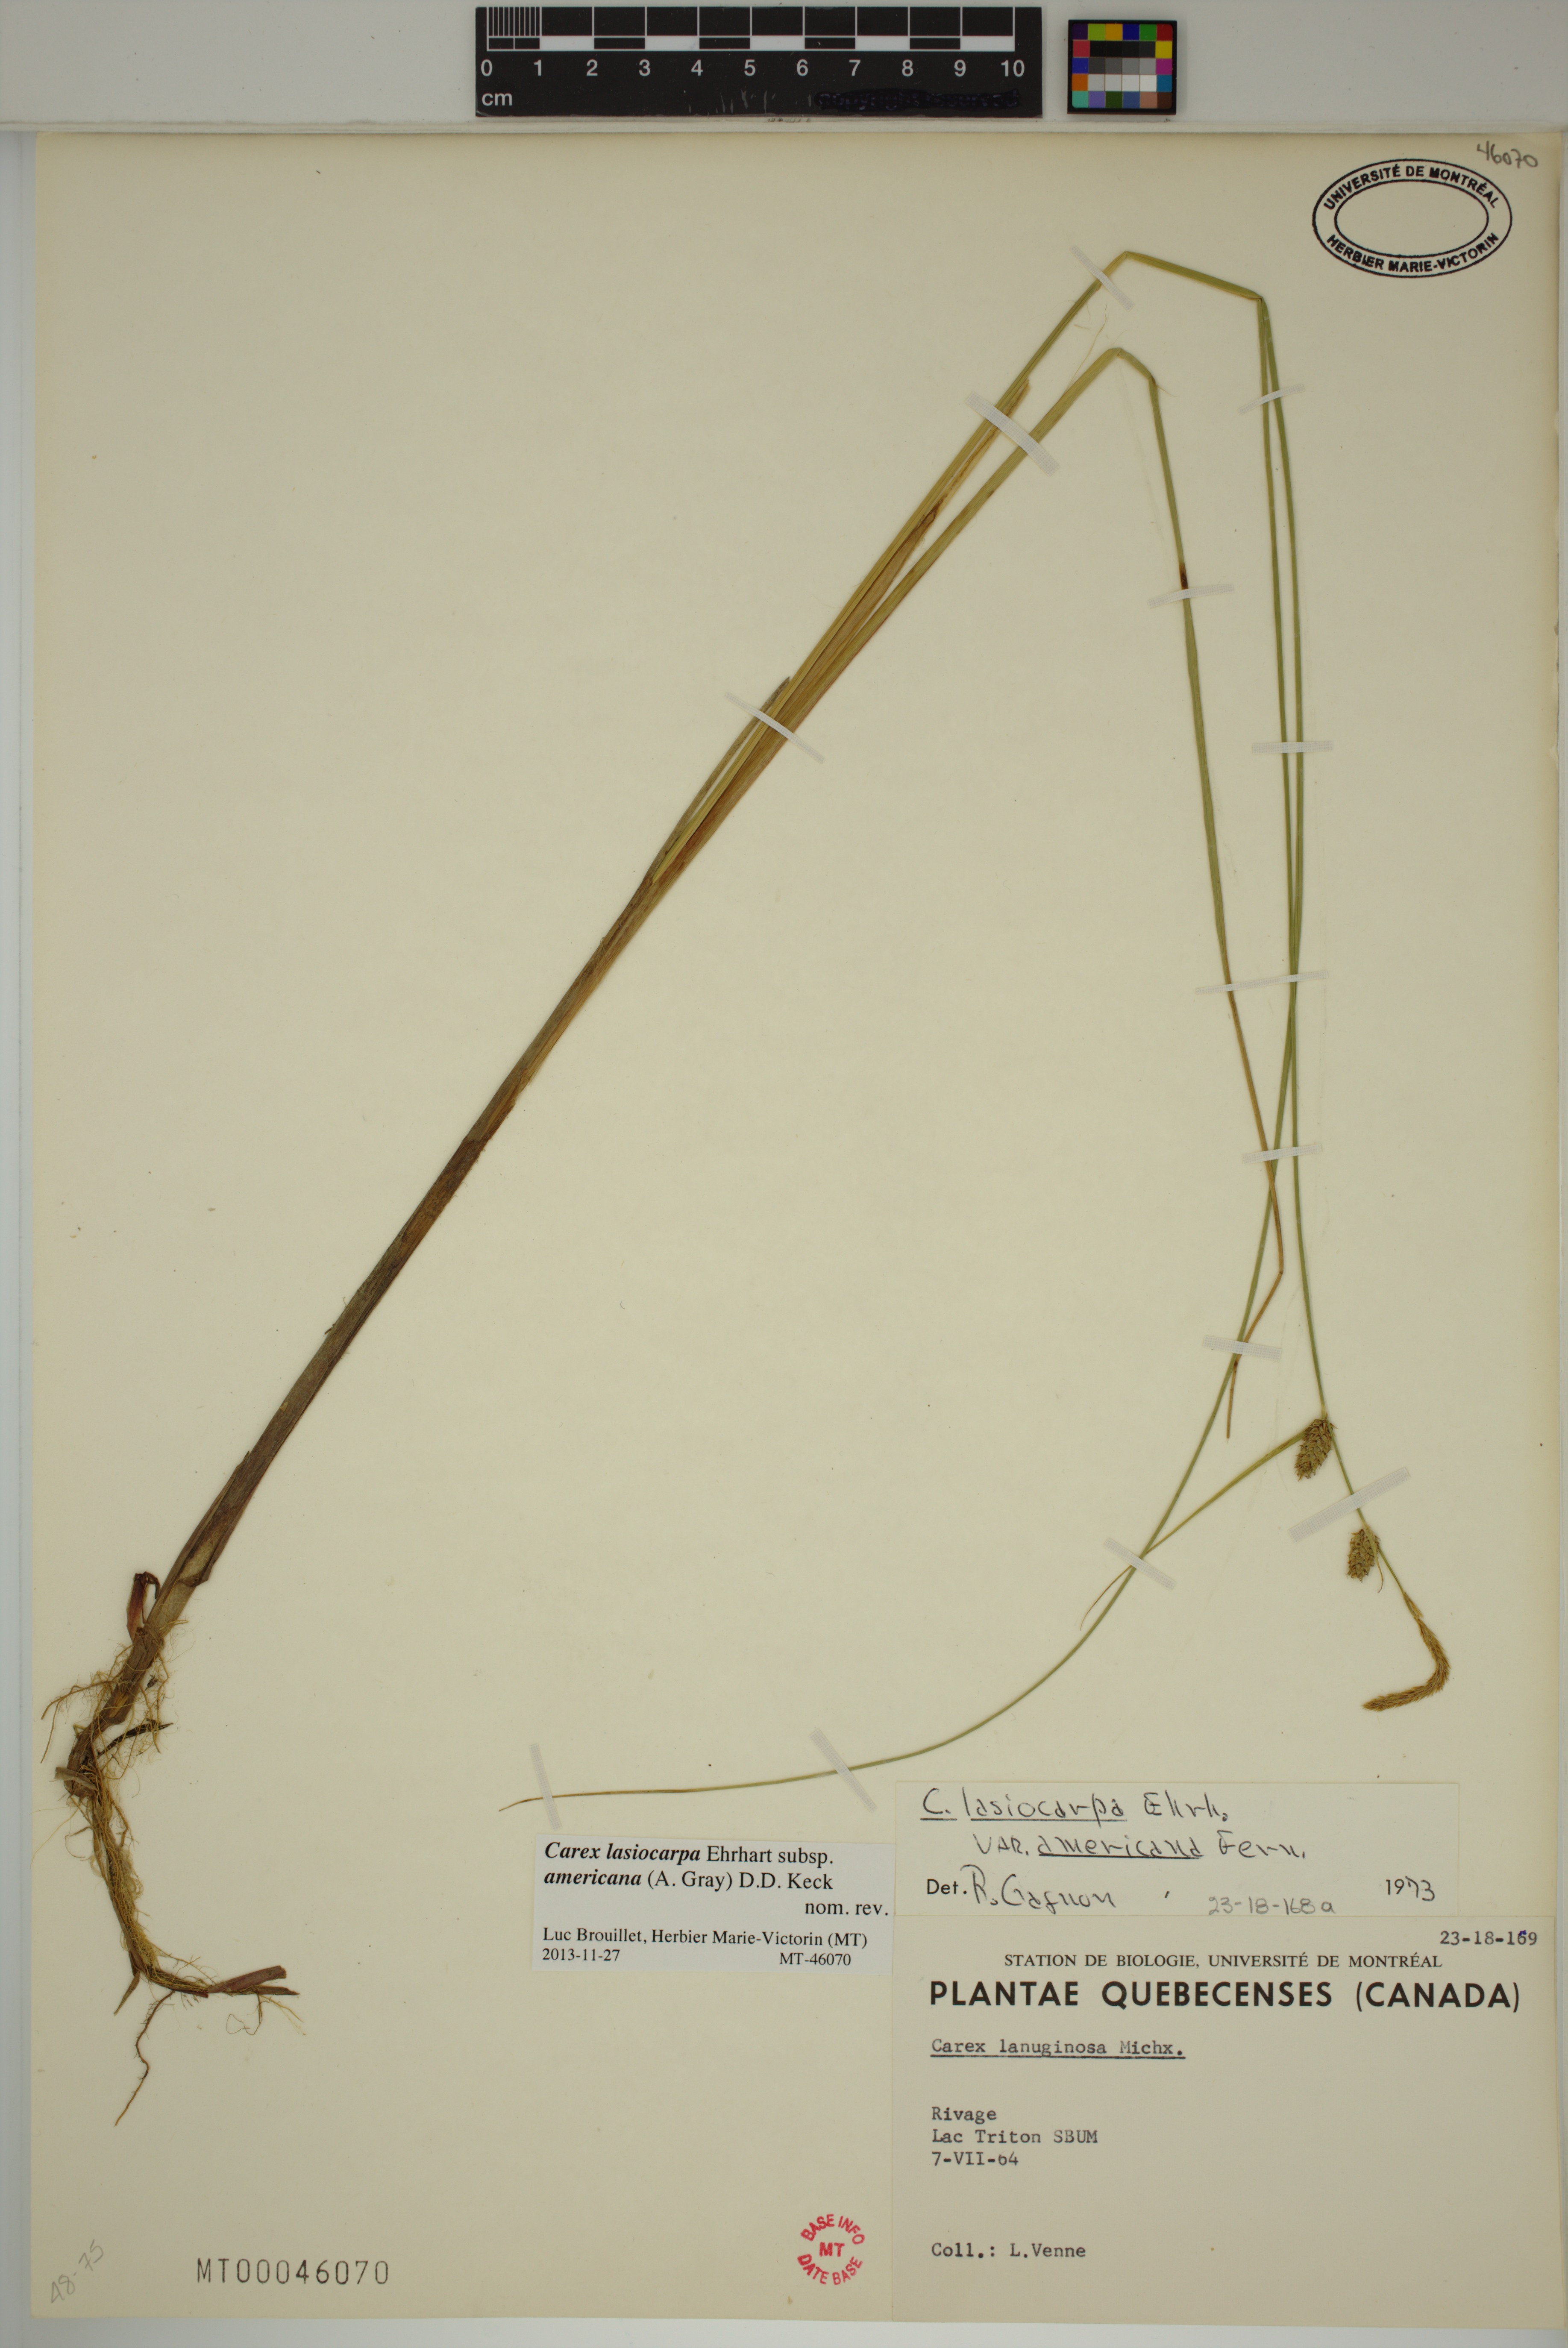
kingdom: Plantae
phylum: Tracheophyta
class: Liliopsida
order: Poales
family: Cyperaceae
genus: Carex
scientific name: Carex lasiocarpa
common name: Slender sedge
